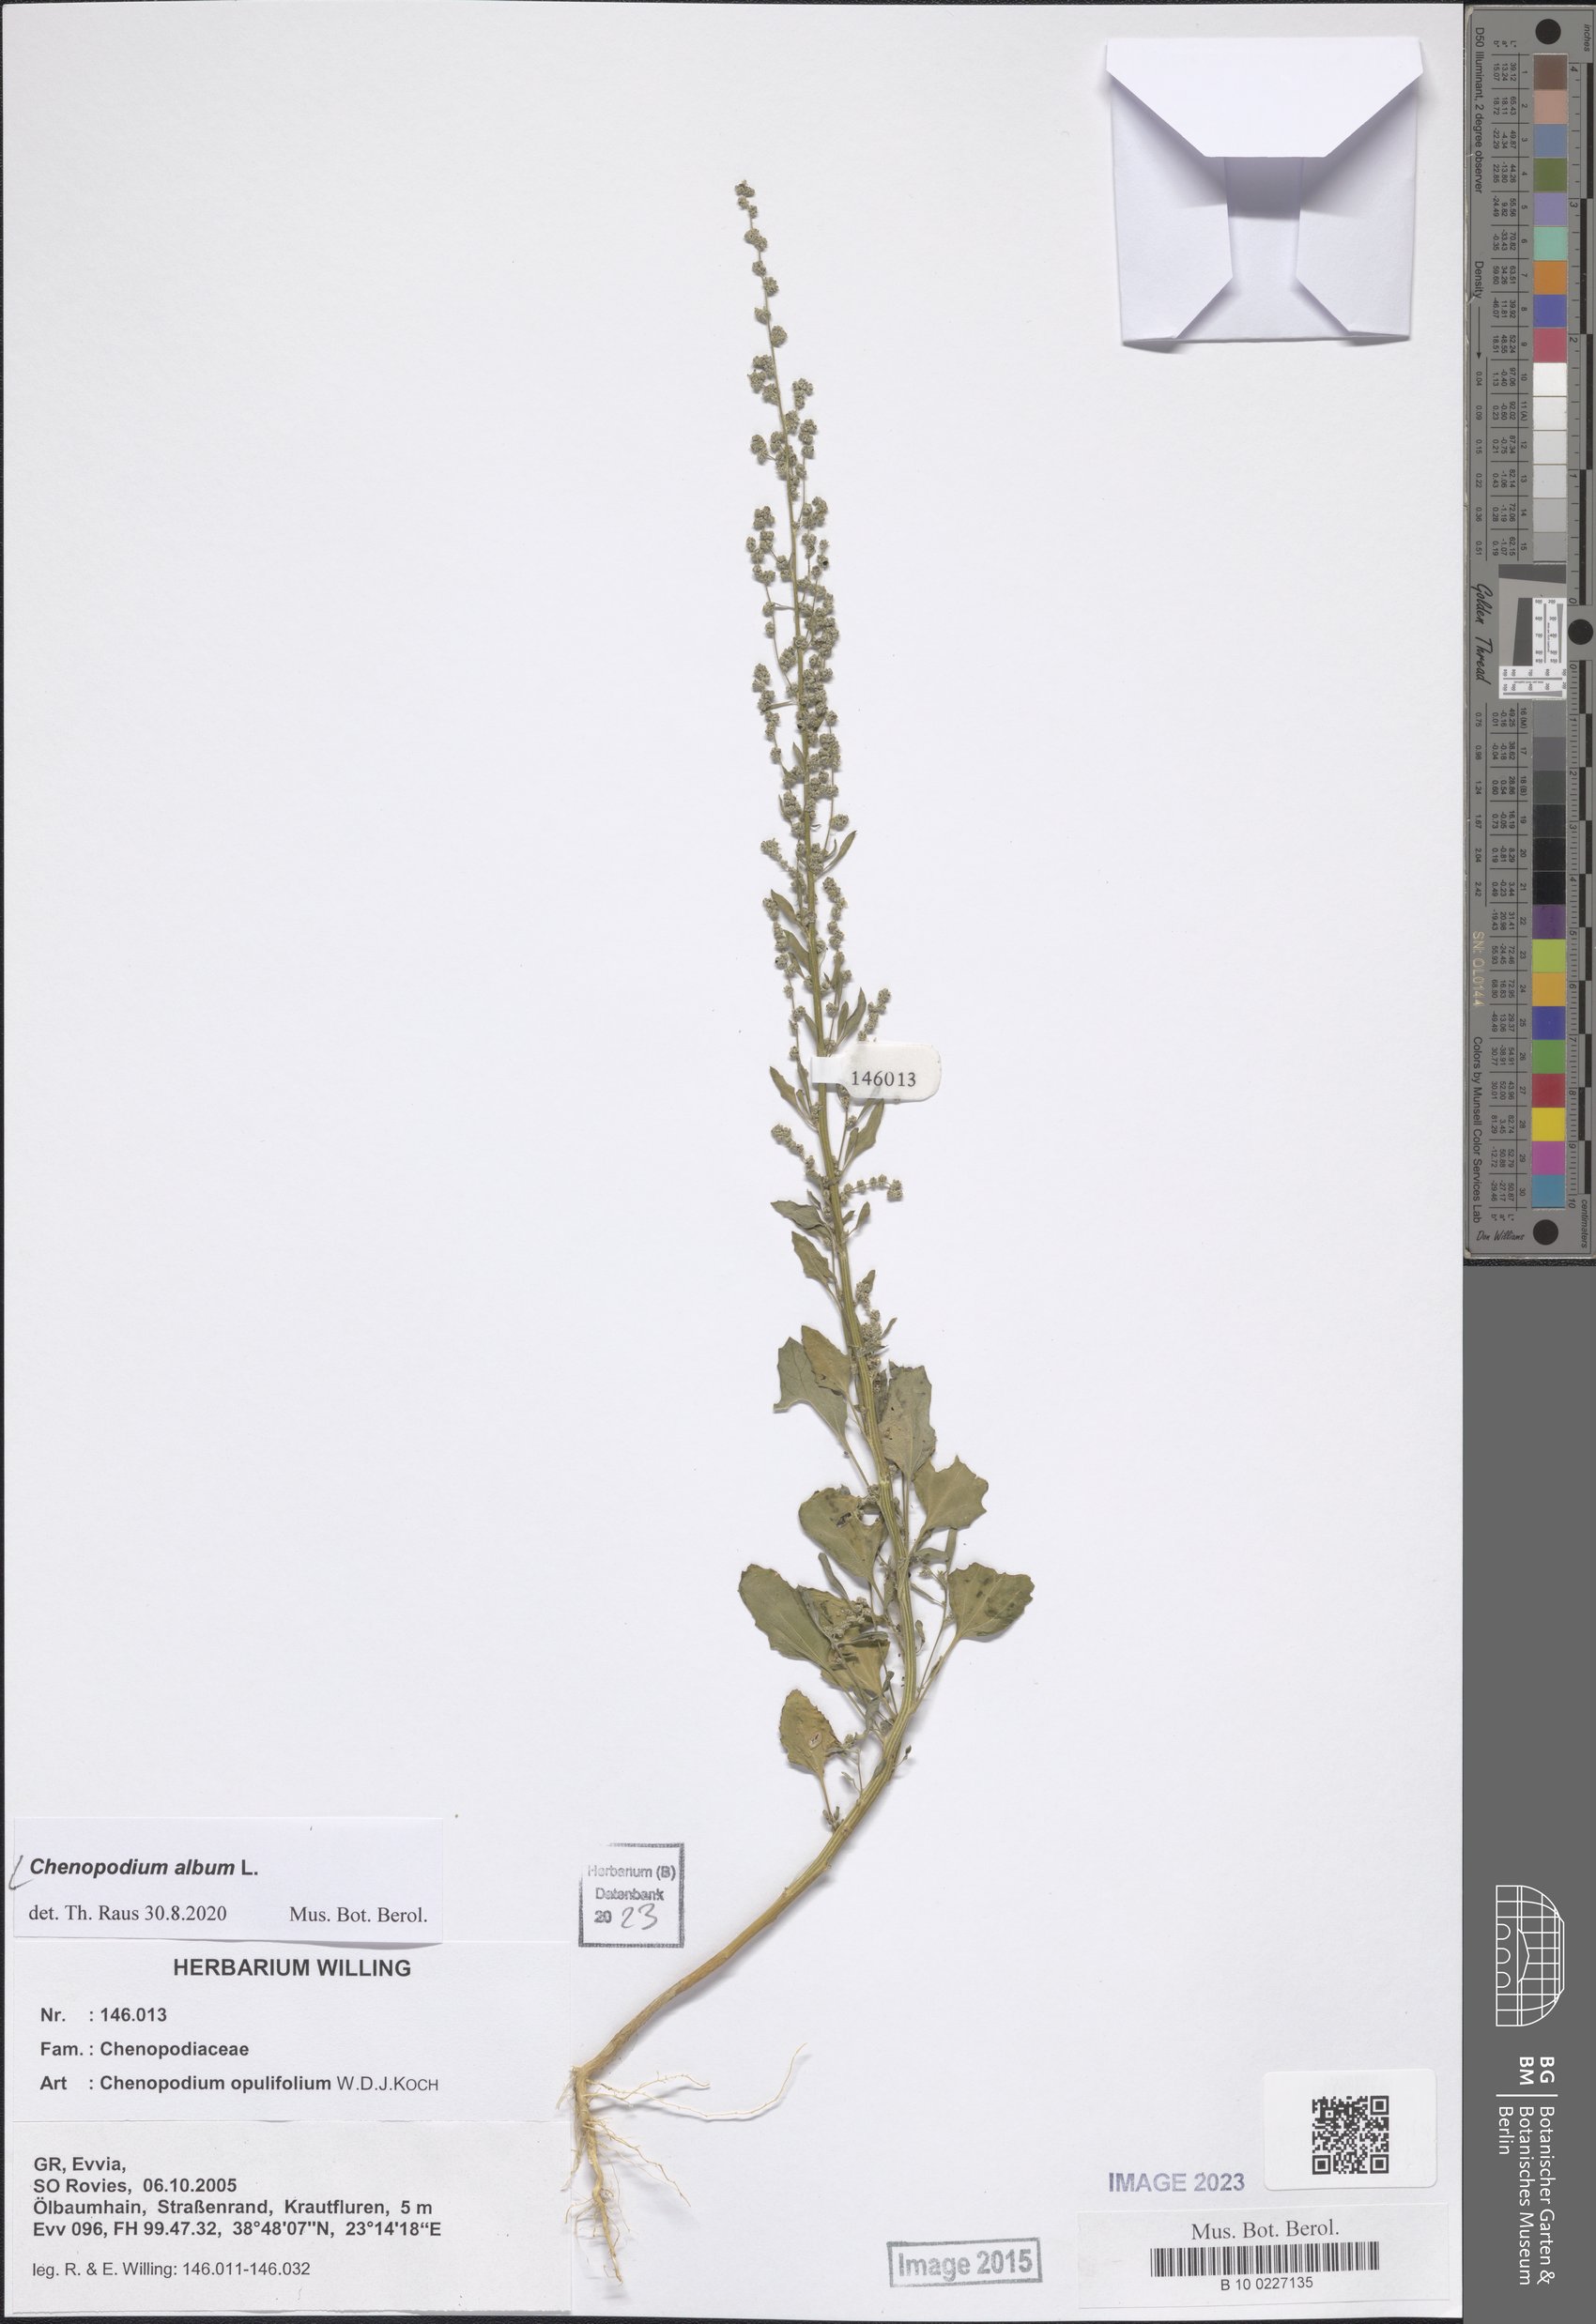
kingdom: Plantae
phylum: Tracheophyta
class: Magnoliopsida
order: Caryophyllales
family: Amaranthaceae
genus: Chenopodium
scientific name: Chenopodium album
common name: Fat-hen
